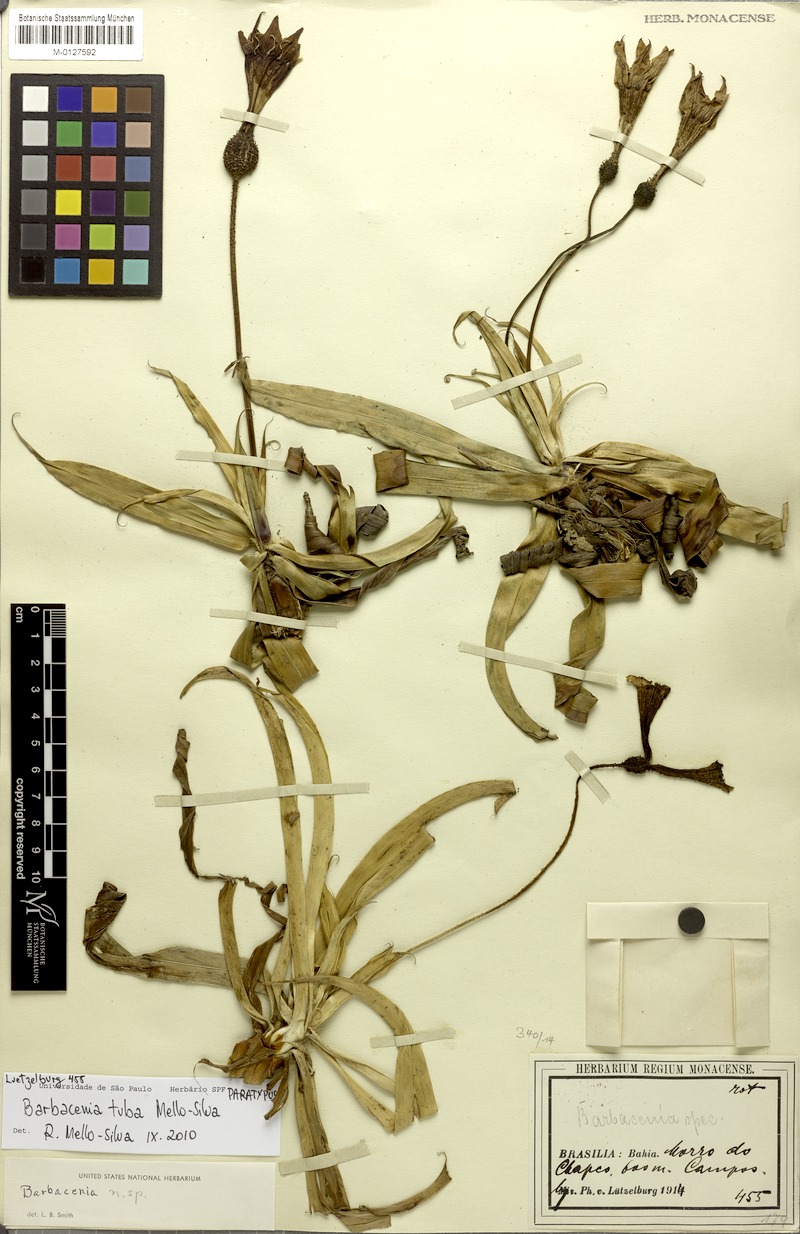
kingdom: Plantae
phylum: Tracheophyta
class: Liliopsida
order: Pandanales
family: Velloziaceae
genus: Barbacenia
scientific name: Barbacenia tuba
